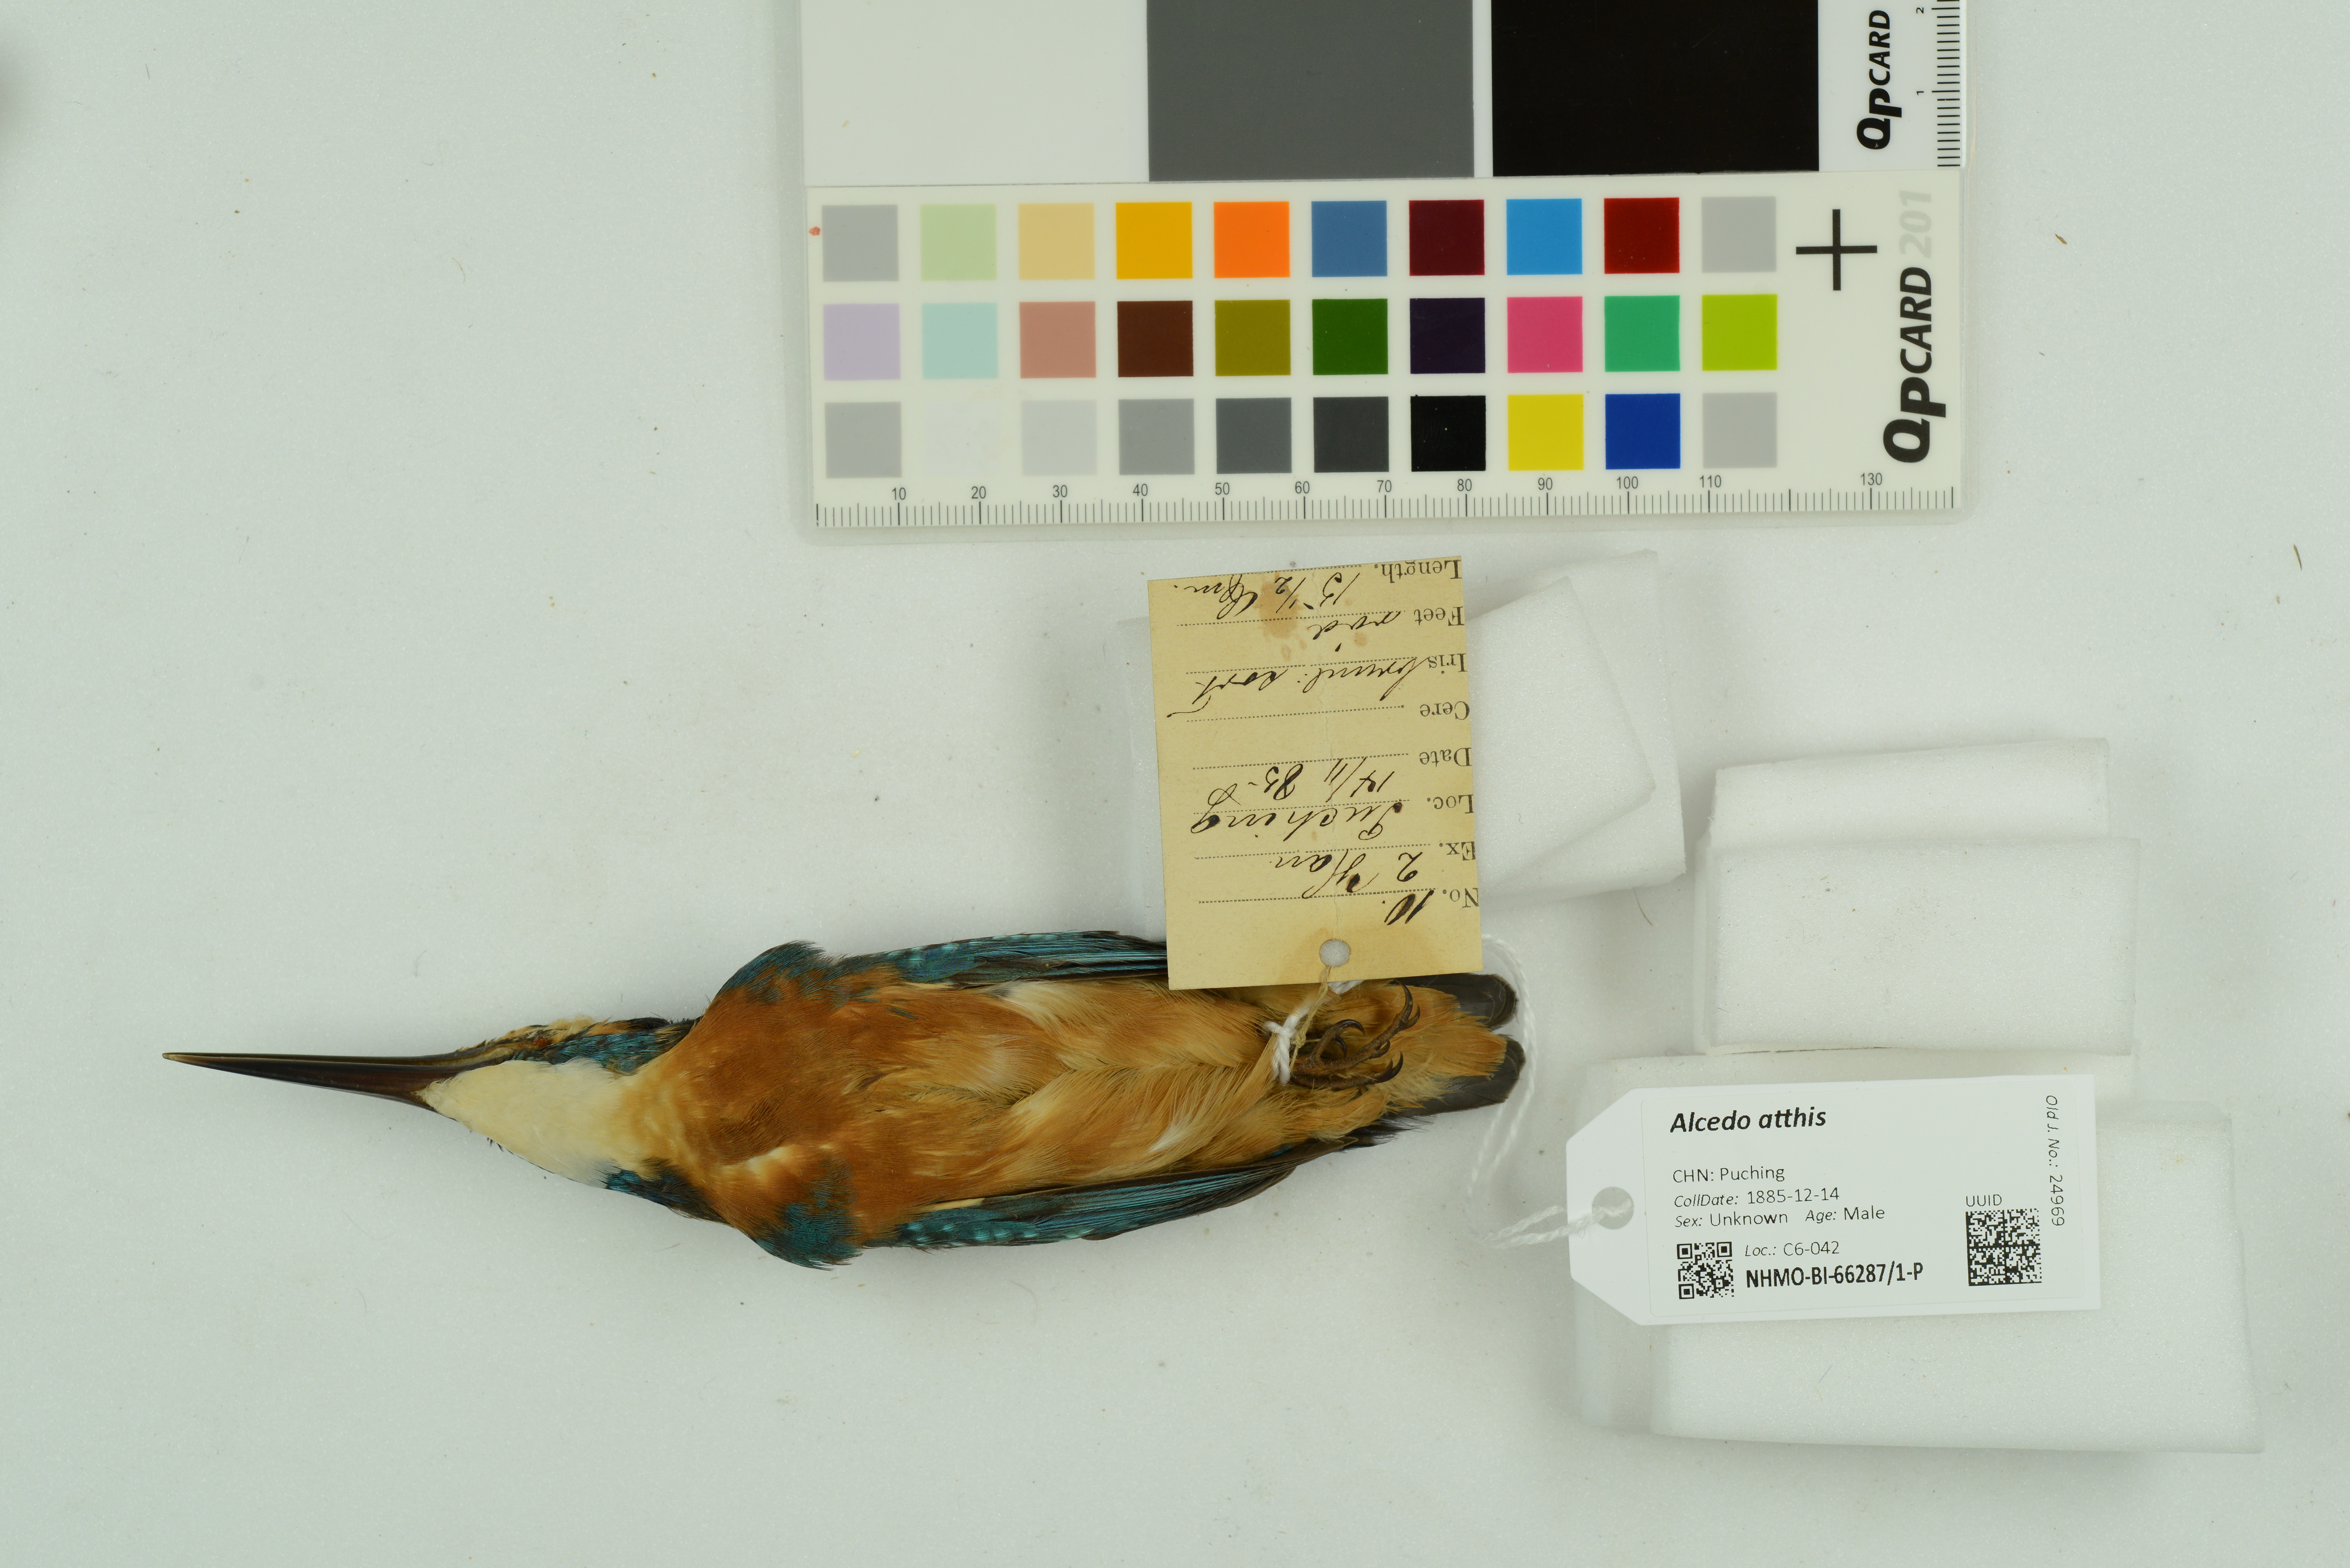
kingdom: Animalia
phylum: Chordata
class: Aves
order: Coraciiformes
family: Alcedinidae
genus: Alcedo
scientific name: Alcedo atthis
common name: Common kingfisher
